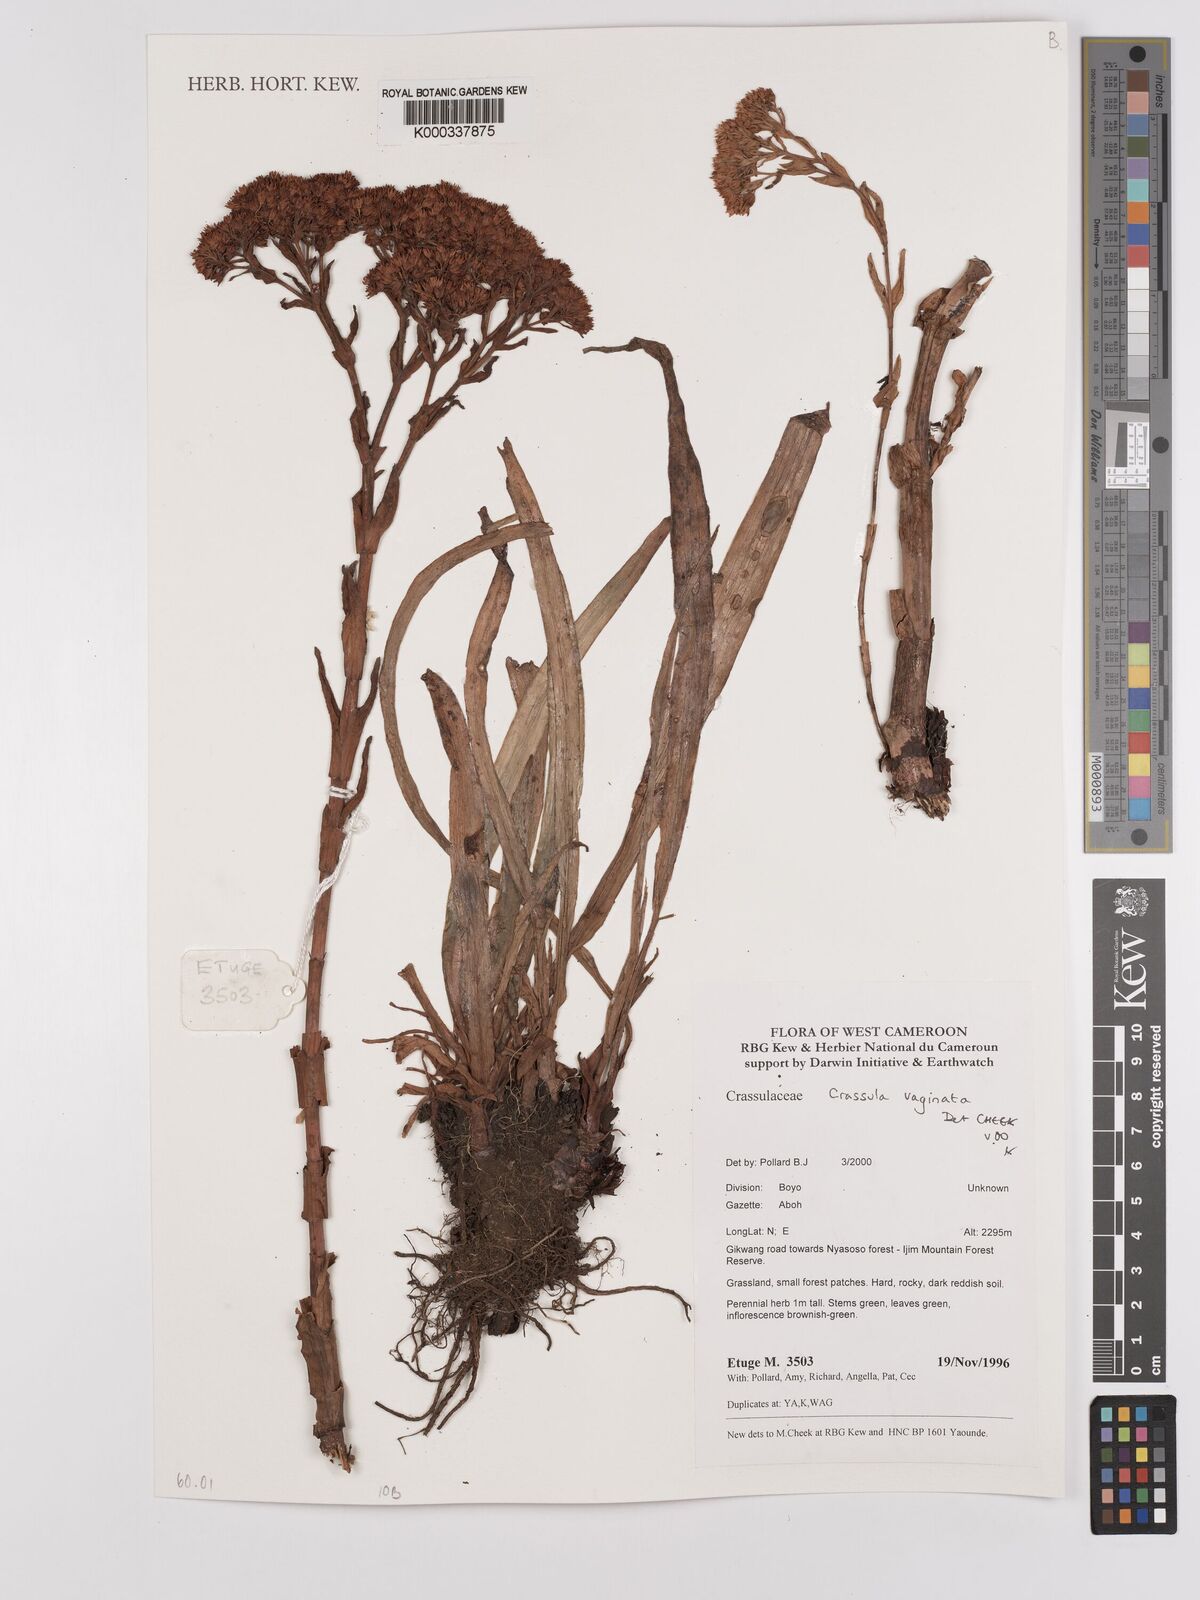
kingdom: Plantae
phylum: Tracheophyta
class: Magnoliopsida
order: Saxifragales
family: Crassulaceae
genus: Crassula
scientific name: Crassula schimperi
